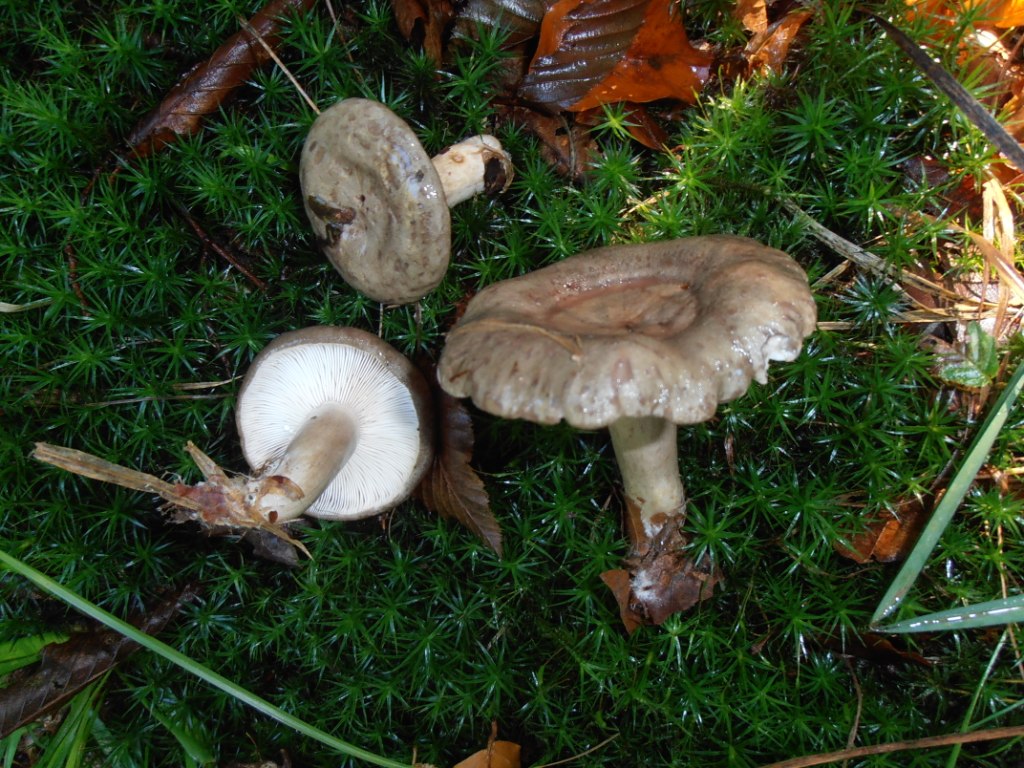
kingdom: Fungi
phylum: Basidiomycota
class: Agaricomycetes
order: Russulales
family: Russulaceae
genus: Lactarius
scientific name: Lactarius blennius
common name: dråbeplettet mælkehat
